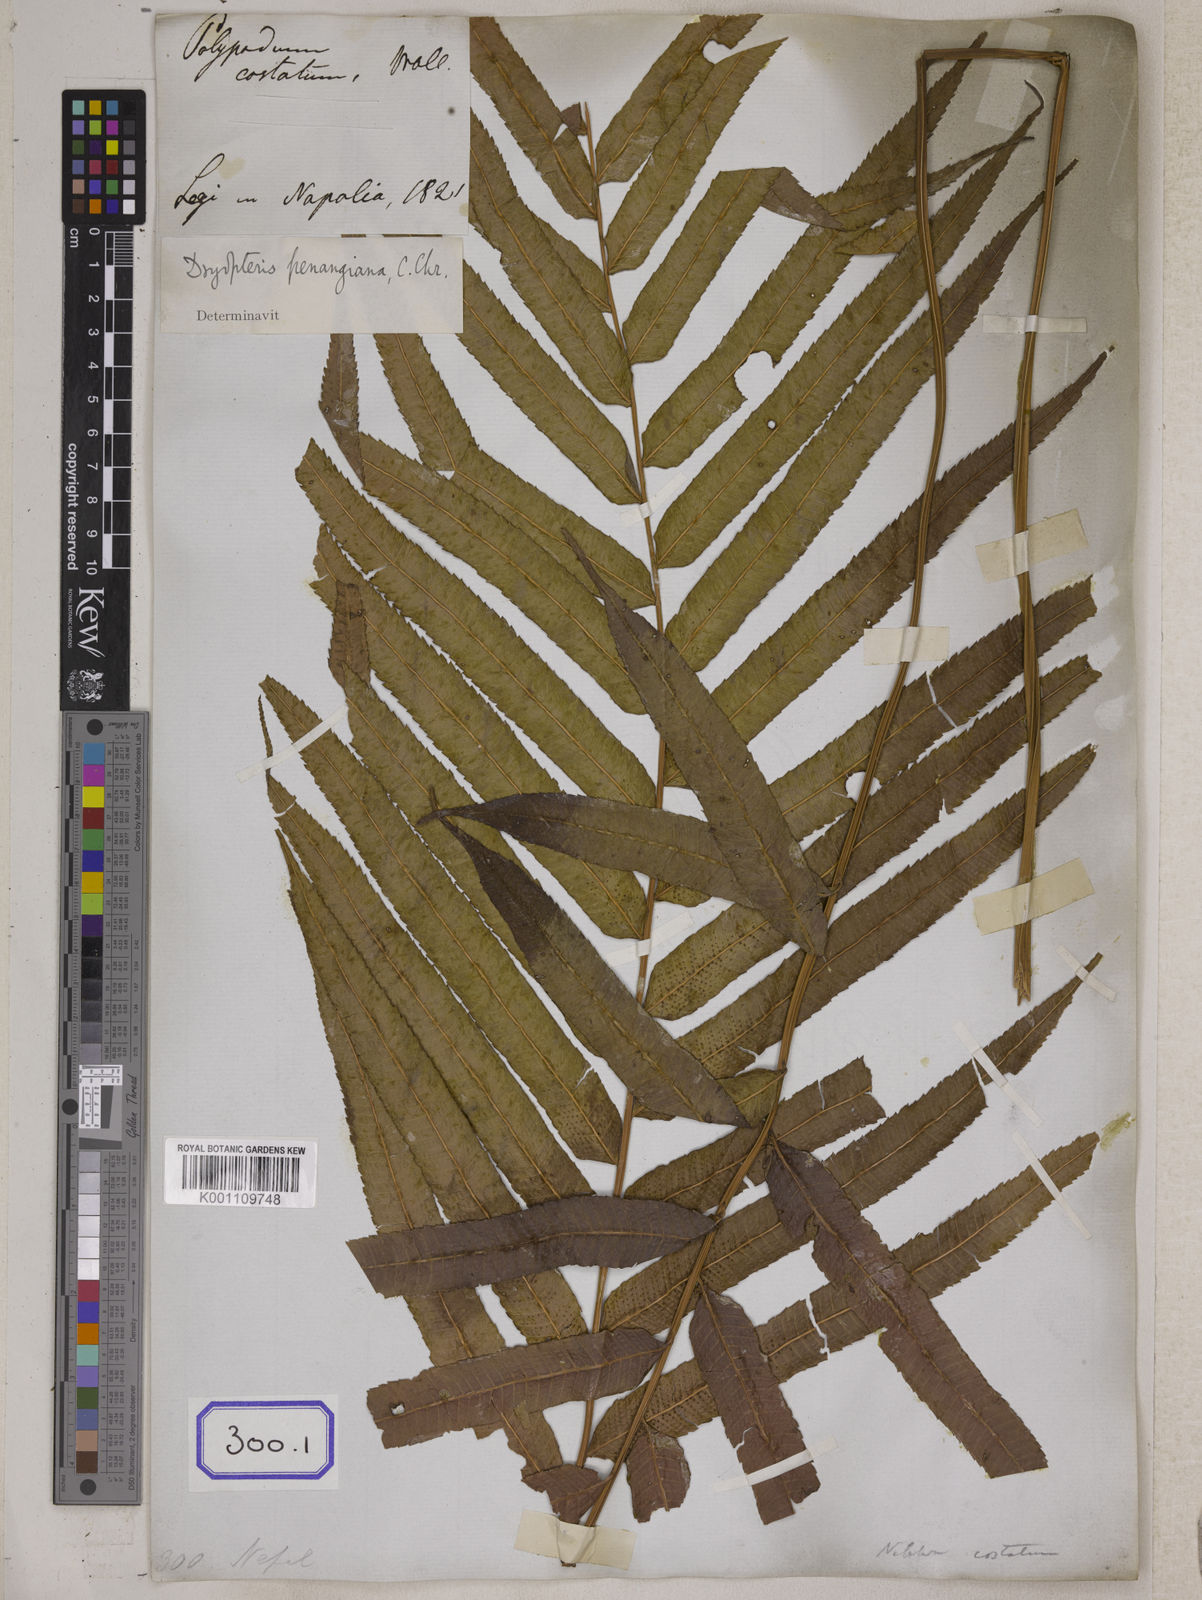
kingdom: Plantae
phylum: Tracheophyta
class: Polypodiopsida
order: Polypodiales
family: Polypodiaceae
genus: Polypodium
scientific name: Polypodium
